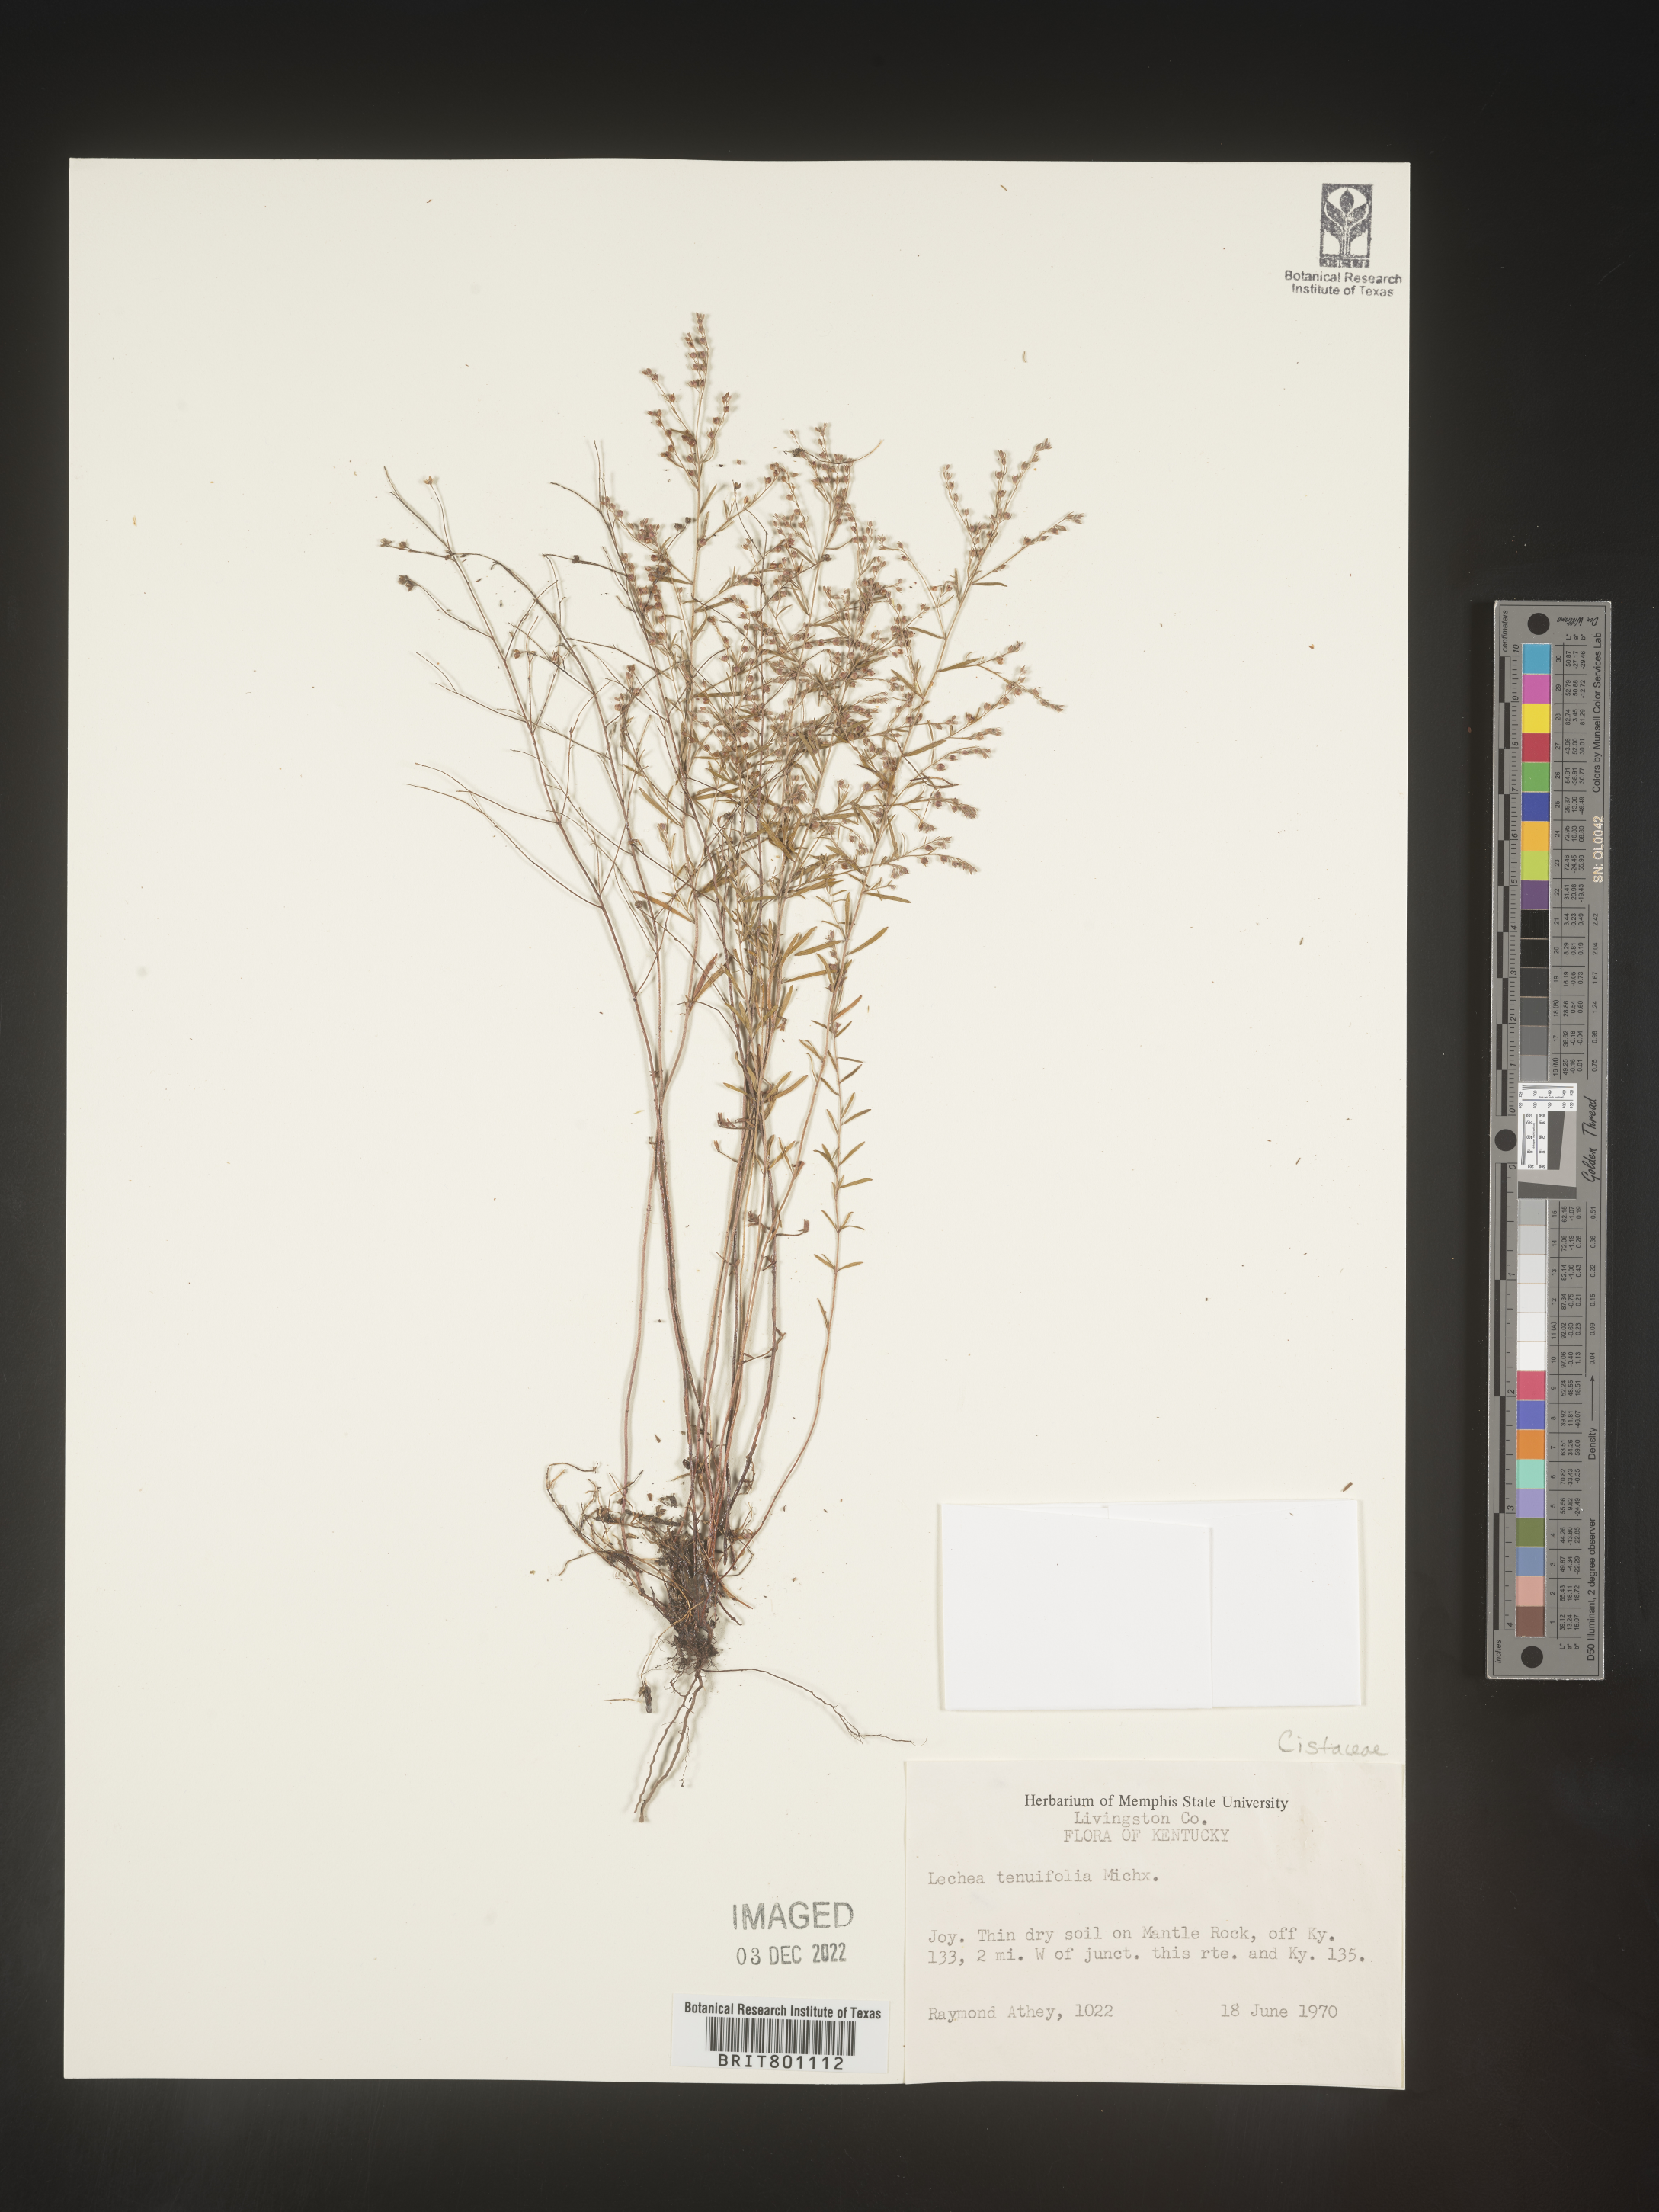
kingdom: Plantae
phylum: Tracheophyta
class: Magnoliopsida
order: Malvales
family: Cistaceae
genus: Lechea
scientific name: Lechea tenuifolia
